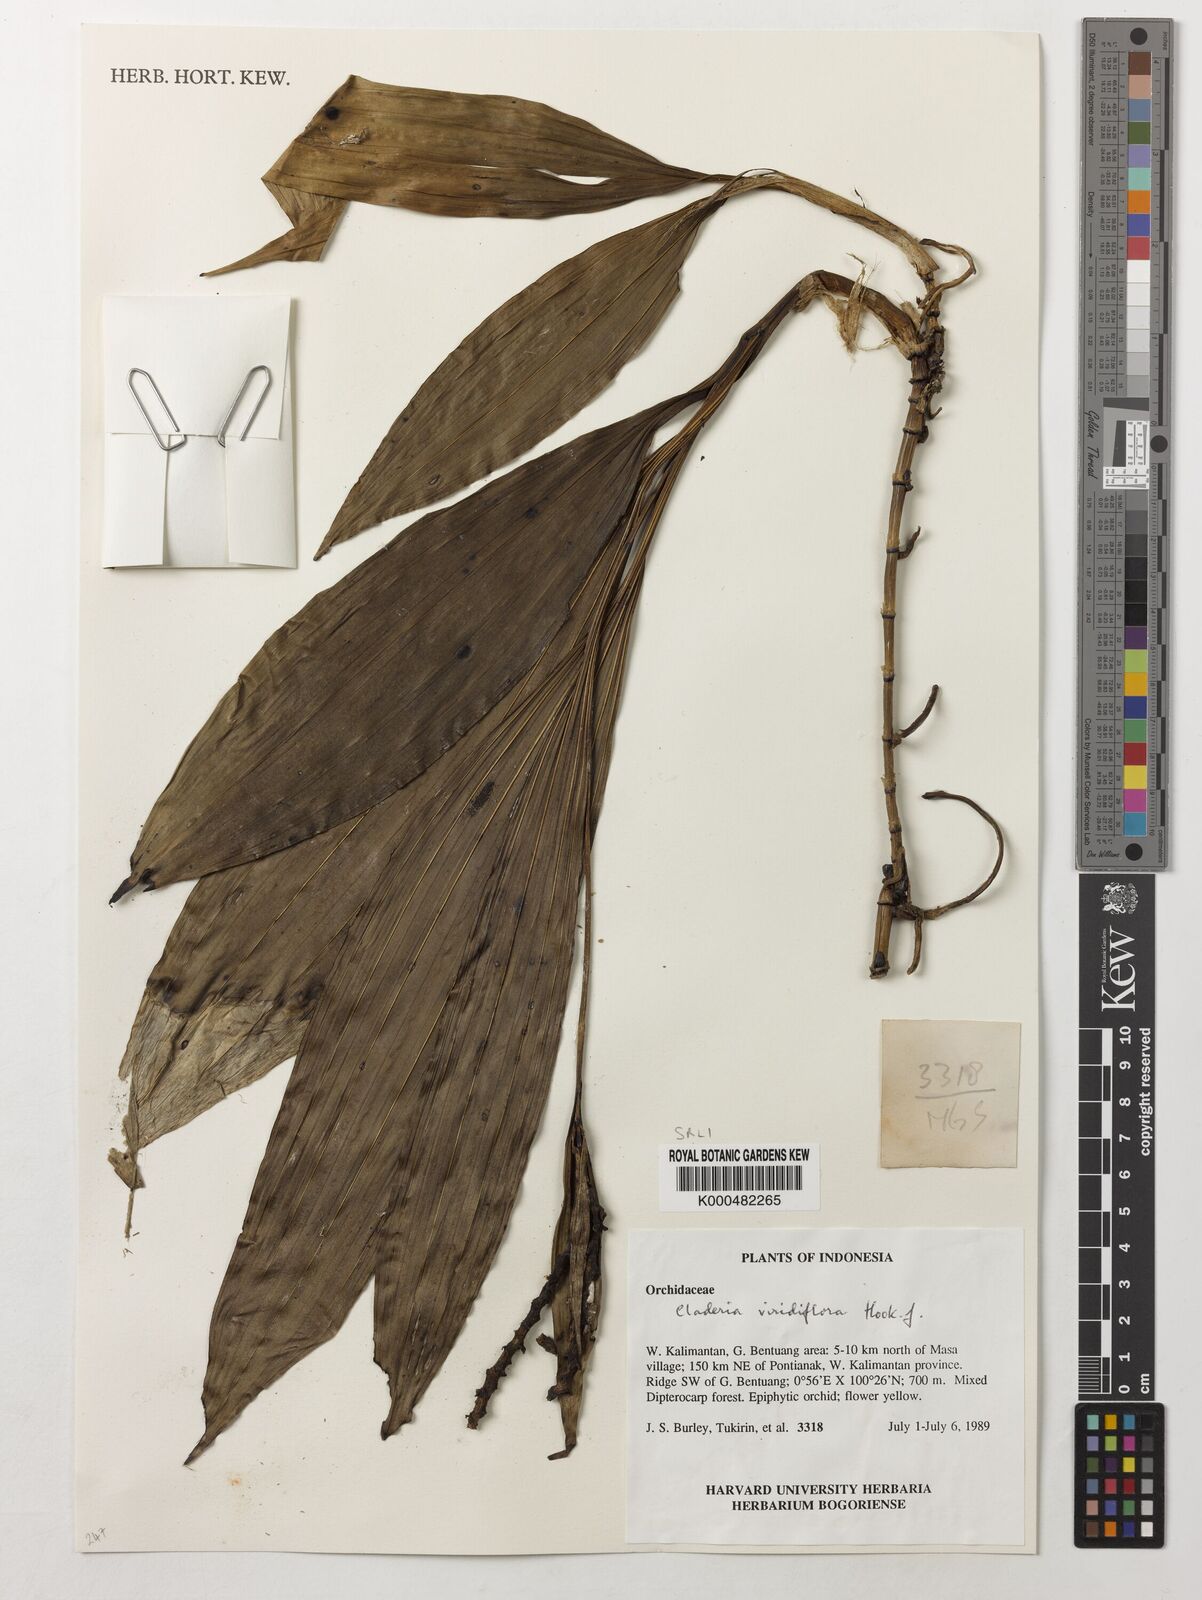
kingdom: Plantae
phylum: Tracheophyta
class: Liliopsida
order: Asparagales
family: Orchidaceae
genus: Claderia
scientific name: Claderia
